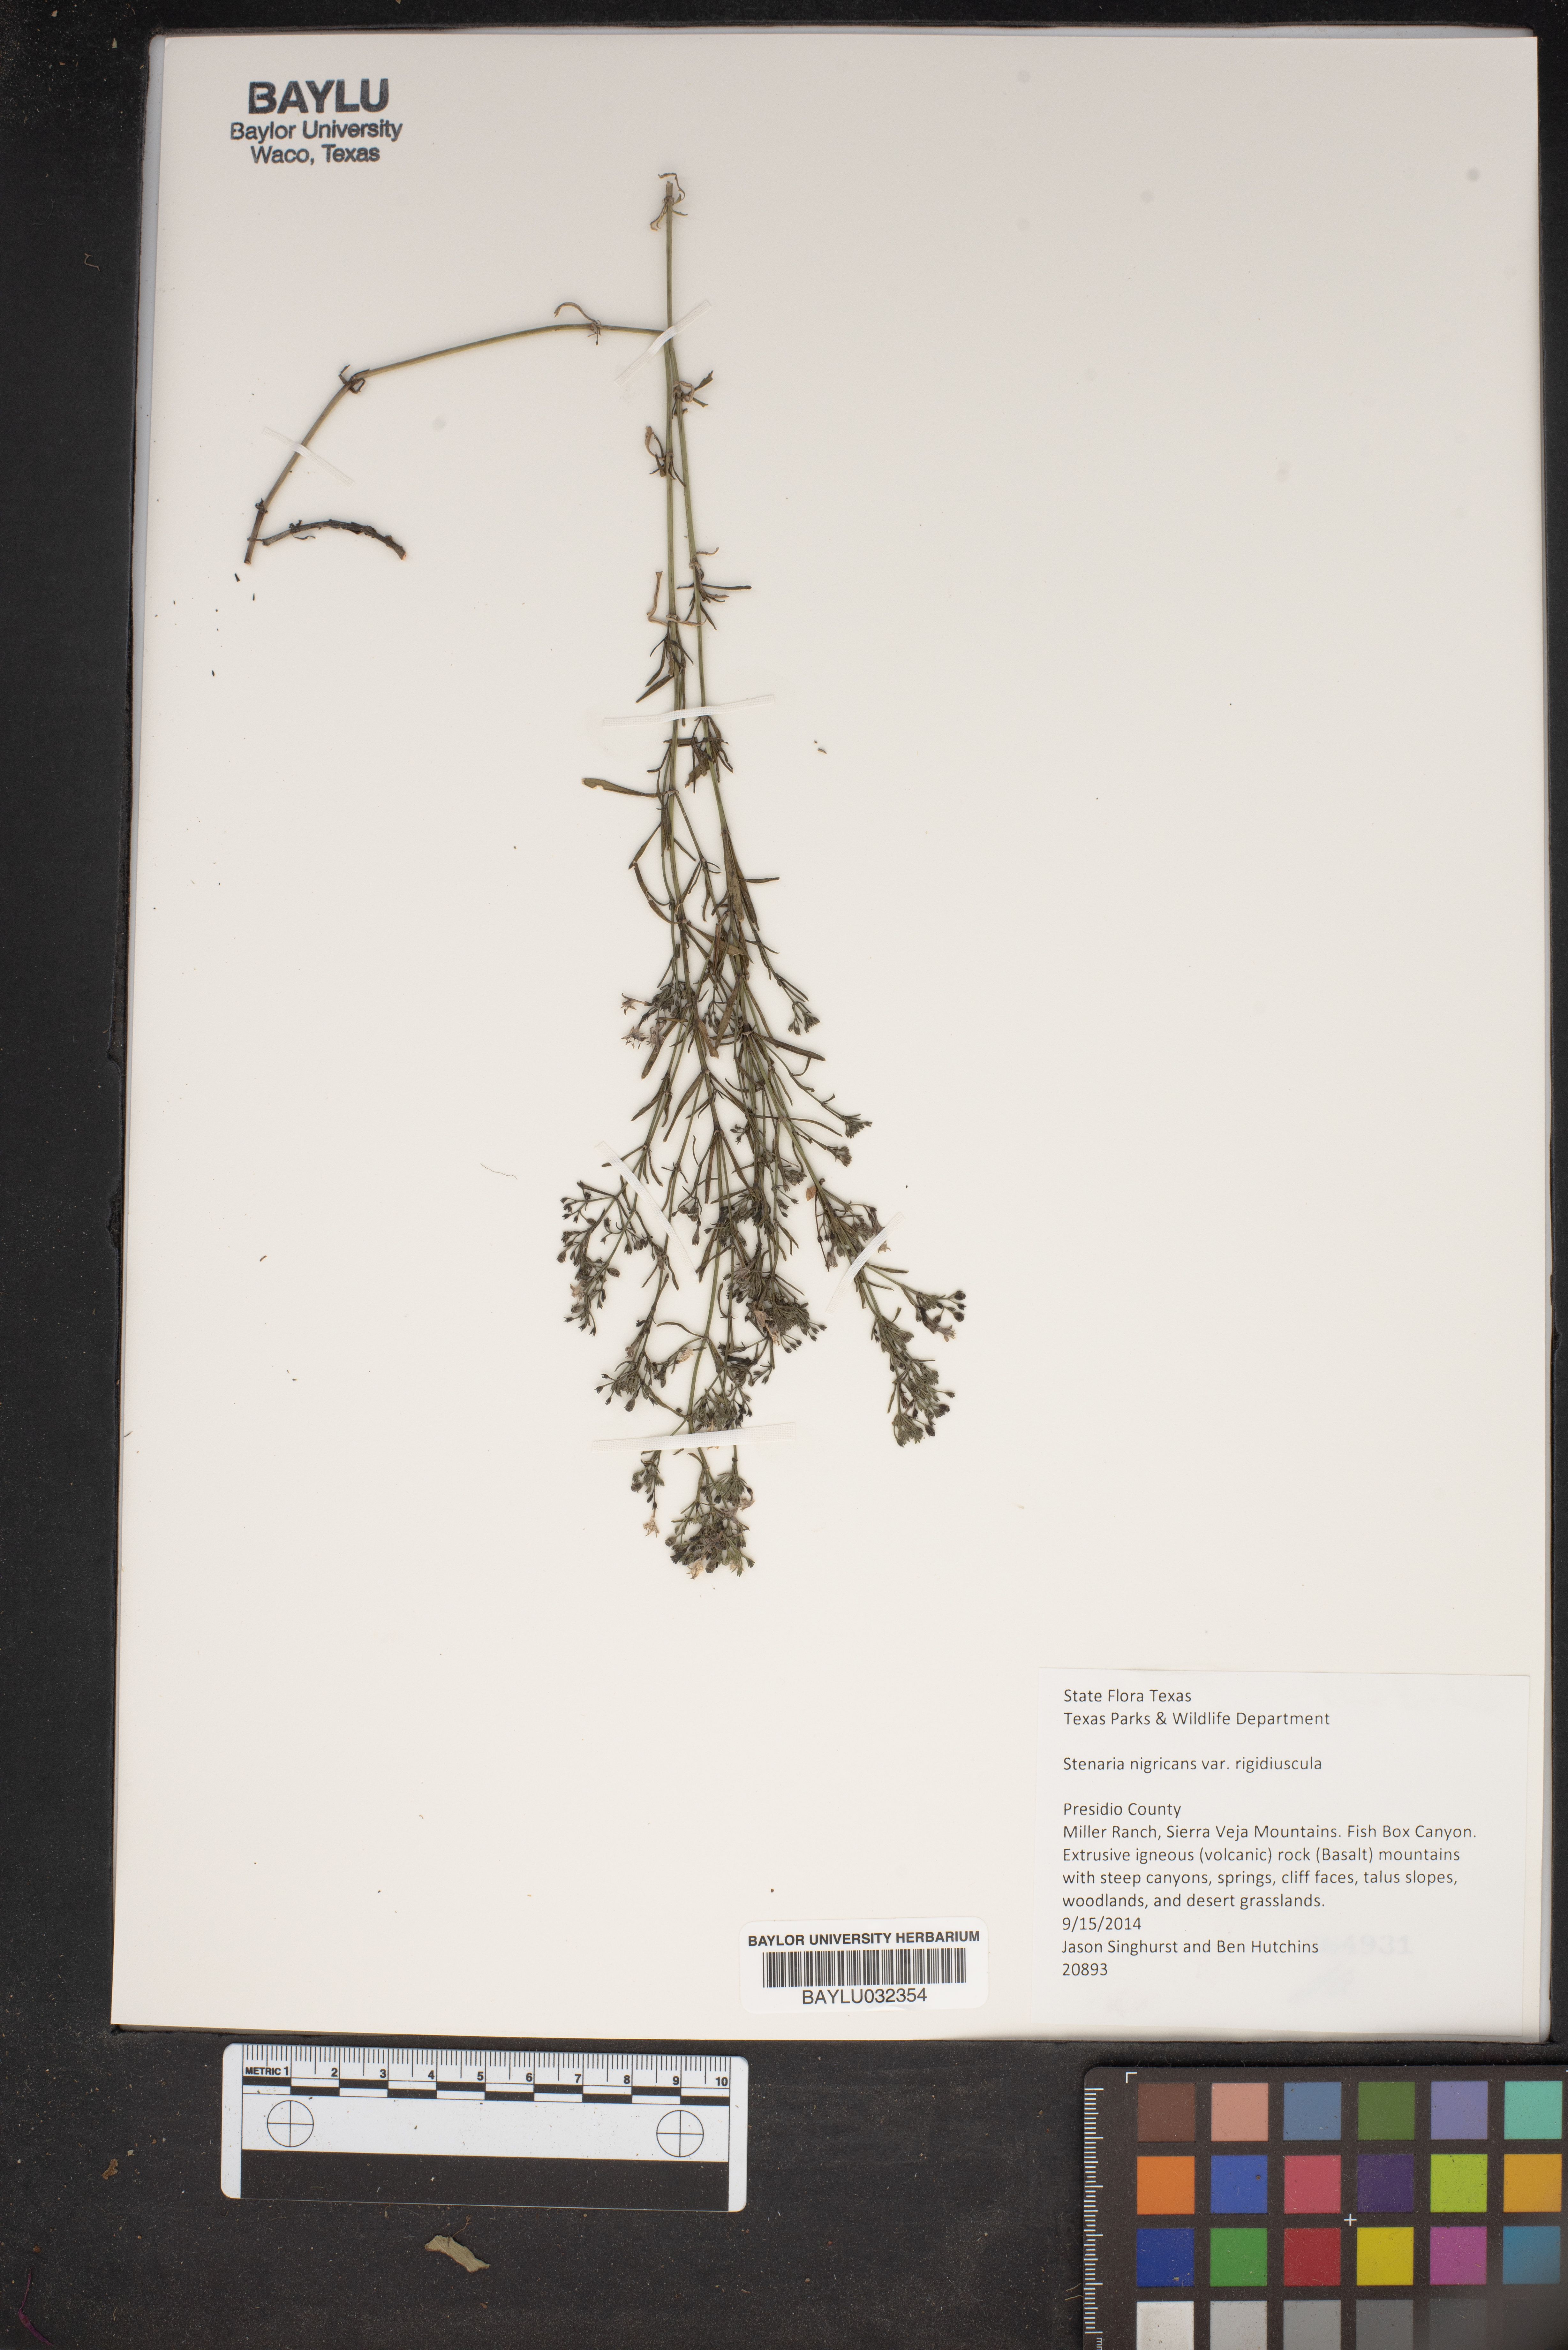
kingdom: Plantae
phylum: Tracheophyta
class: Magnoliopsida
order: Gentianales
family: Rubiaceae
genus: Stenaria
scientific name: Stenaria nigricans
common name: Diamondflowers
